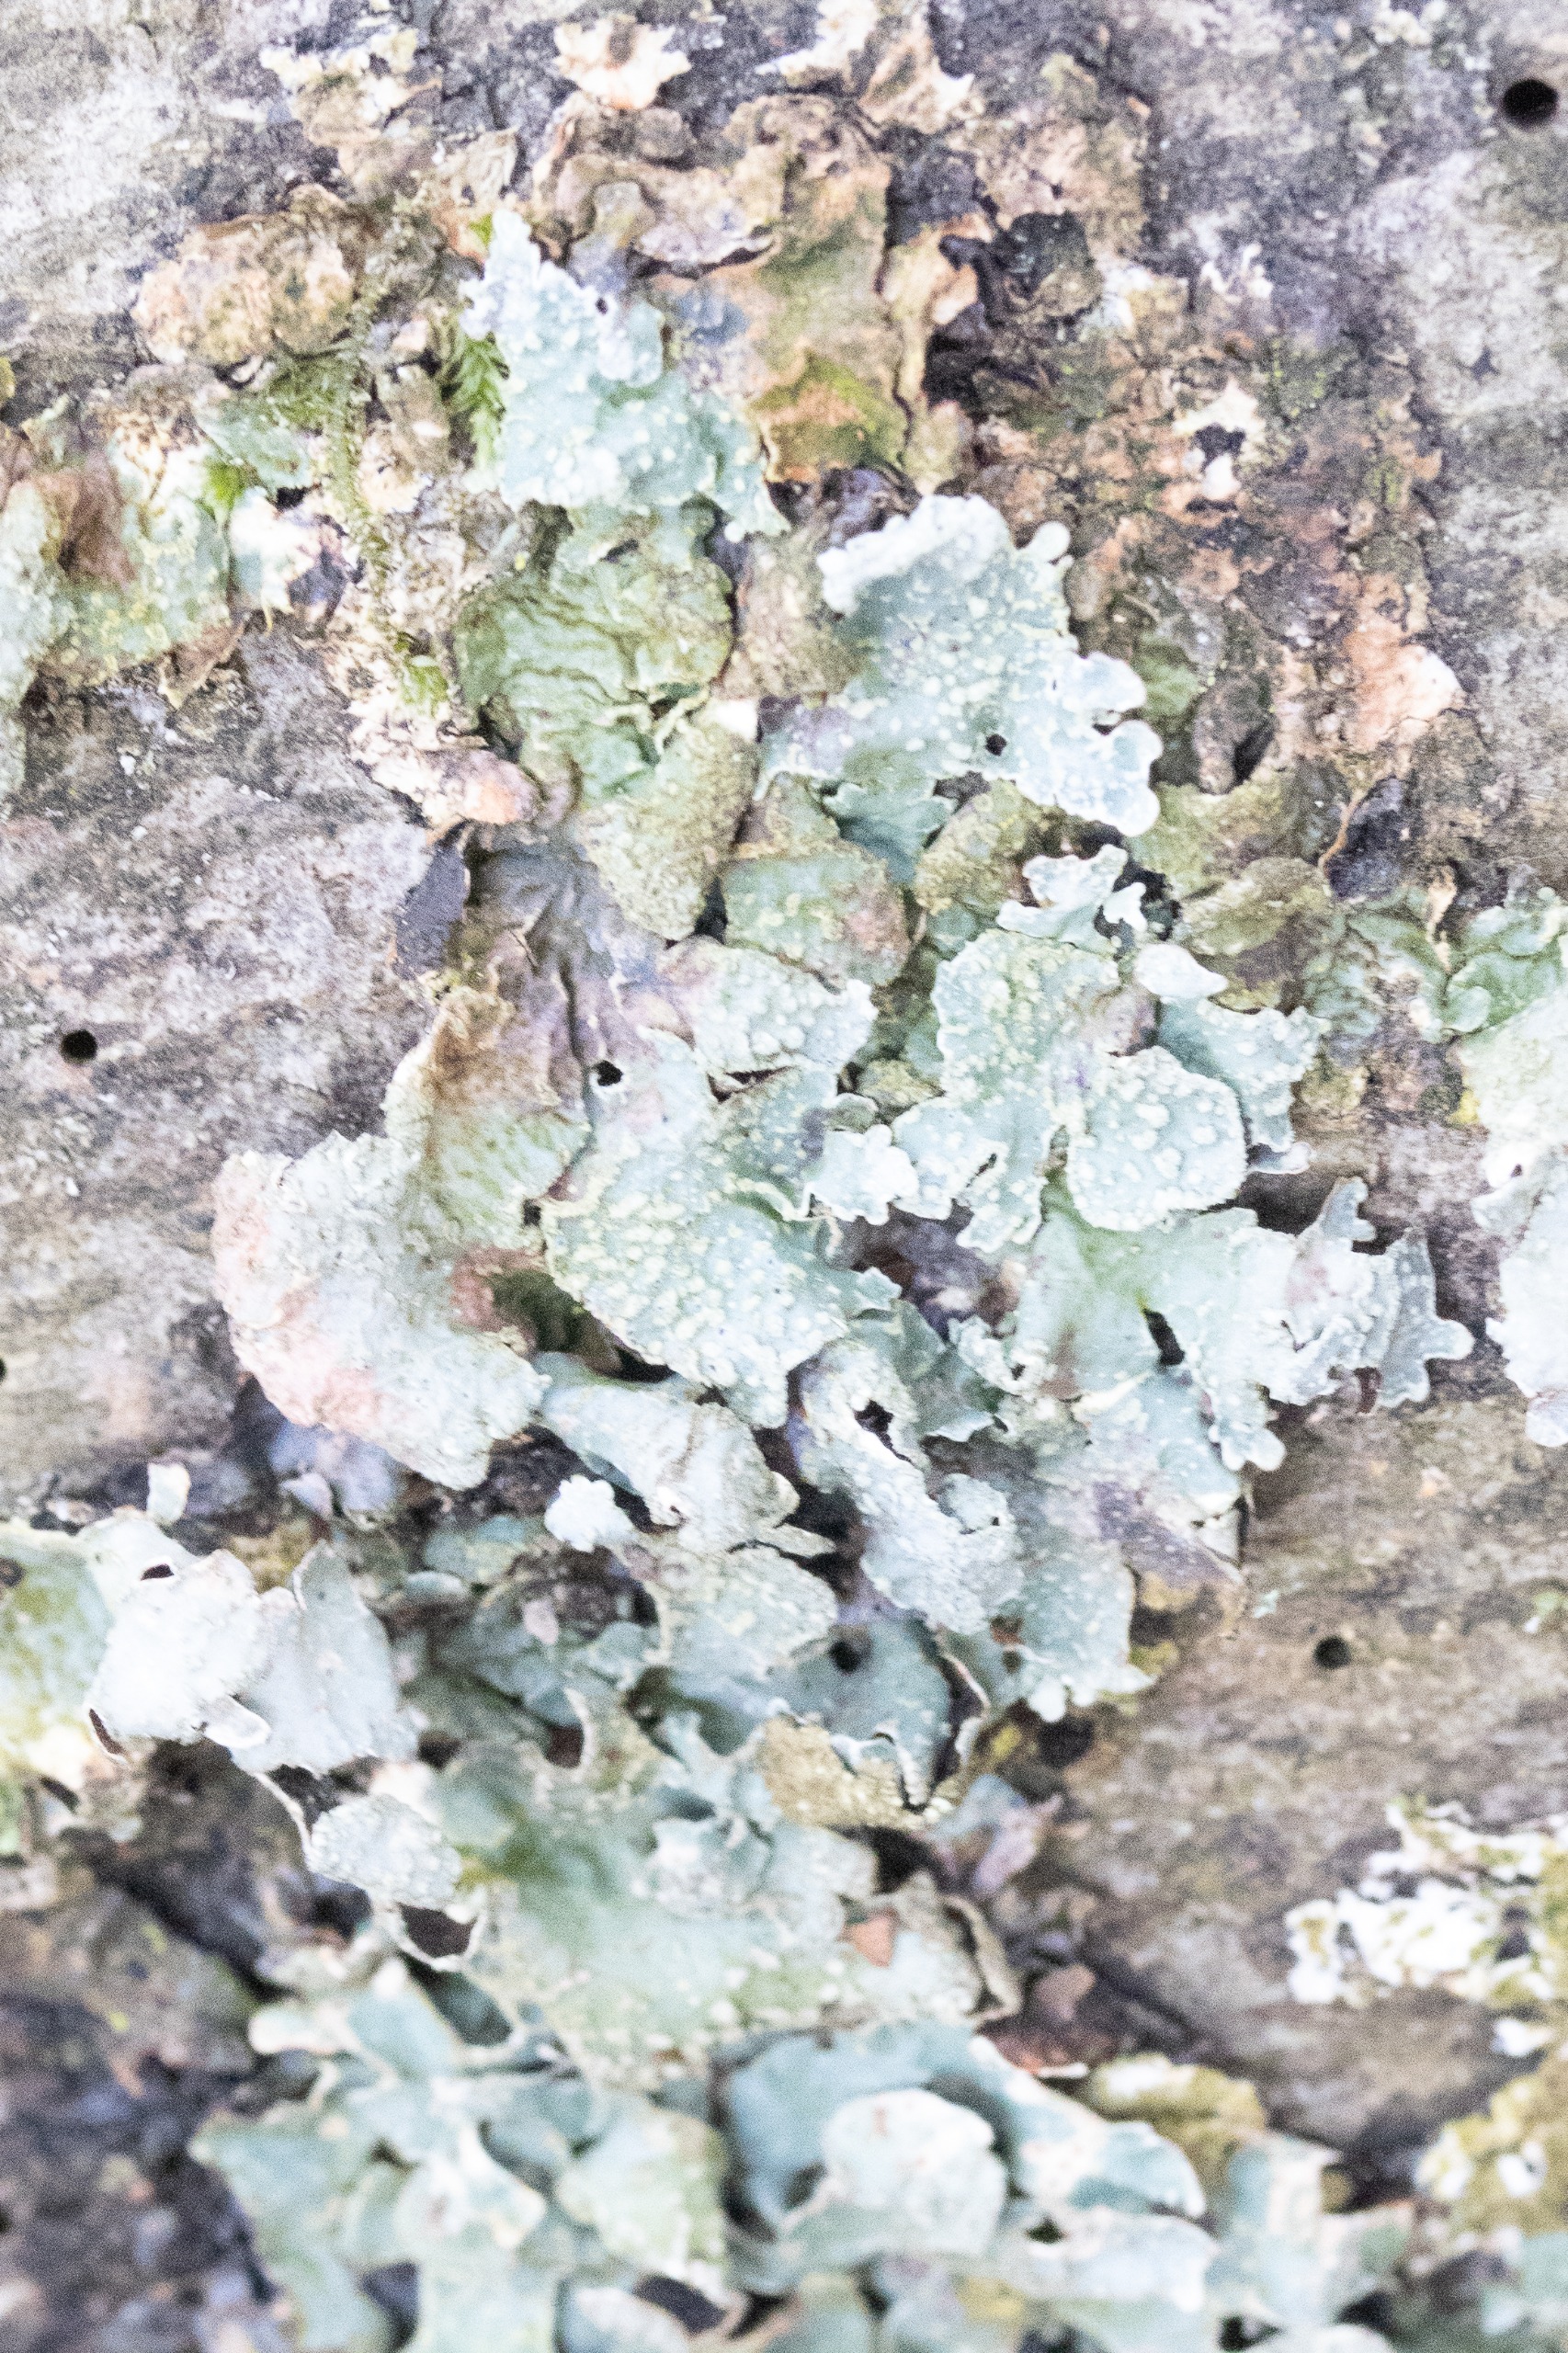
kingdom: Fungi
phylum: Ascomycota
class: Lecanoromycetes
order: Lecanorales
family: Parmeliaceae
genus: Parmelia
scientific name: Parmelia sulcata
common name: Rynket skållav
